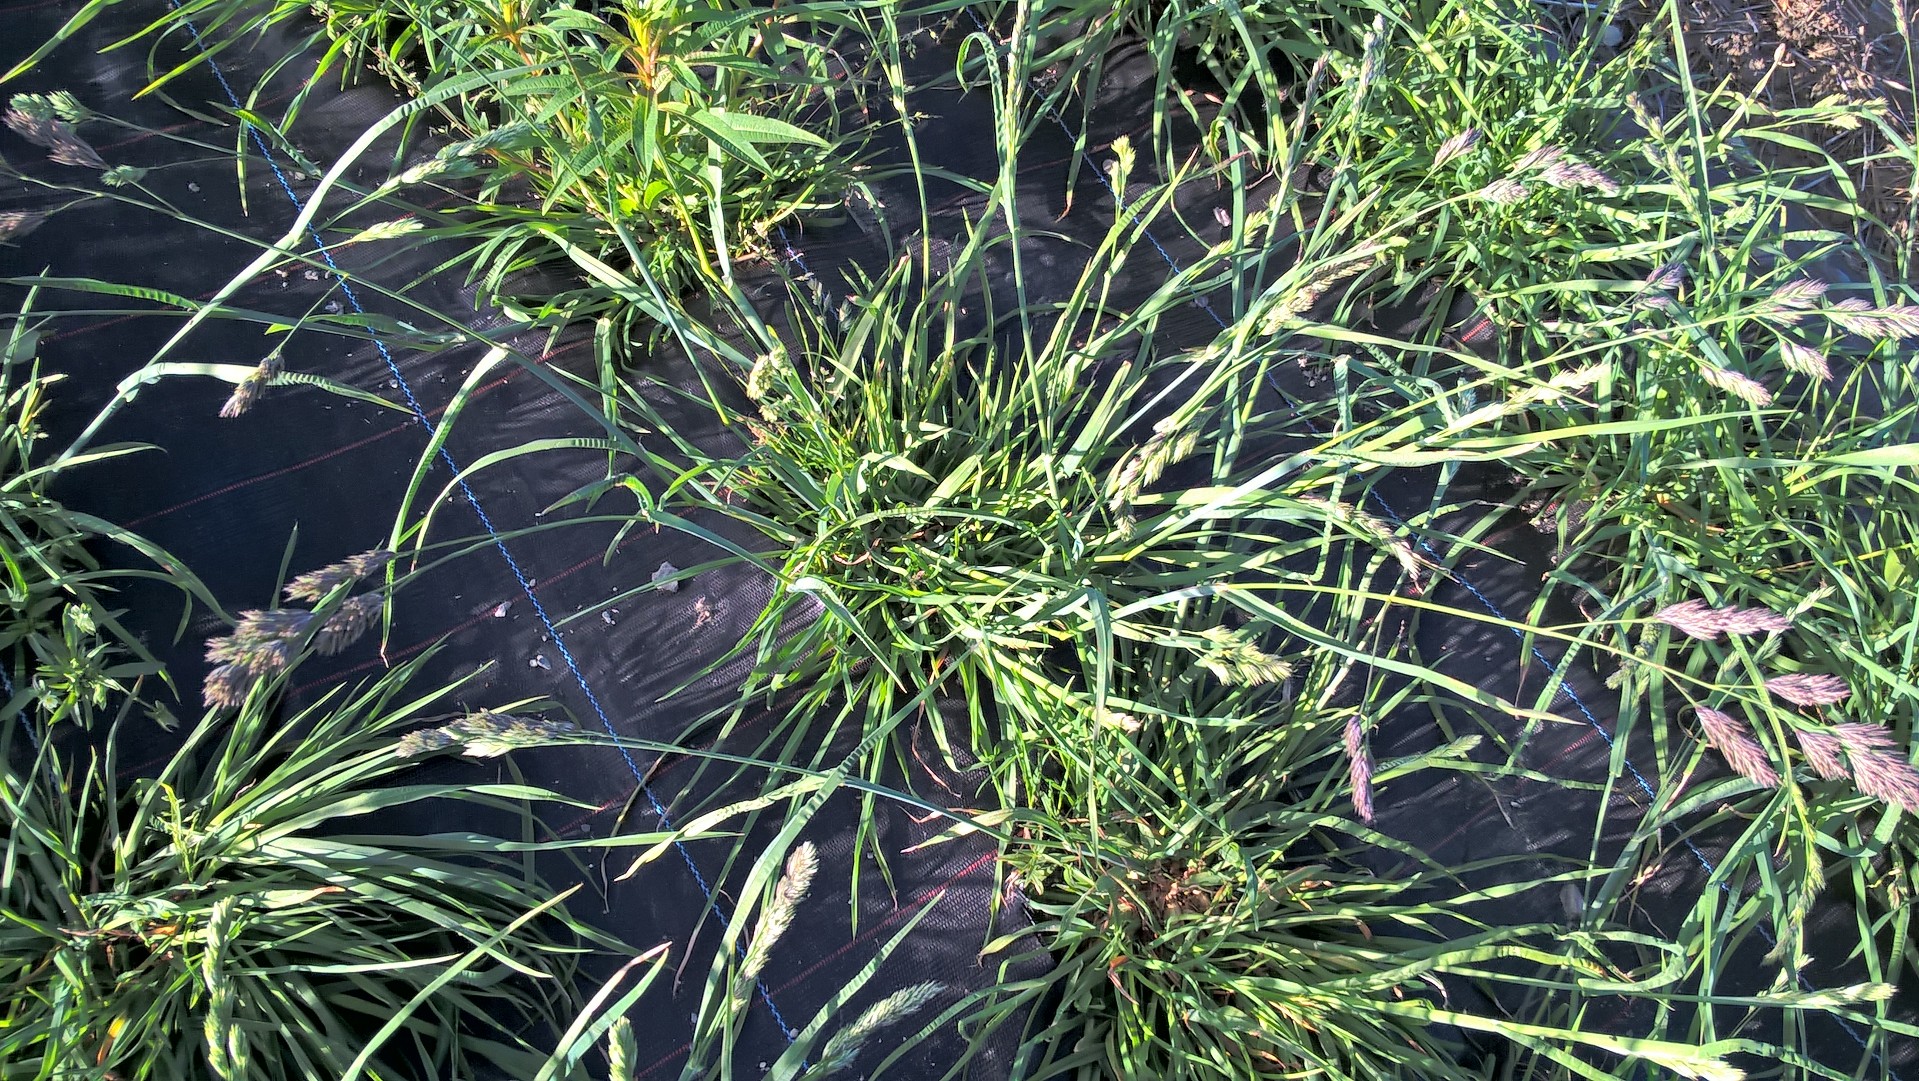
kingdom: Plantae
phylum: Tracheophyta
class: Liliopsida
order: Poales
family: Poaceae
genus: Dactylis
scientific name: Dactylis glomerata
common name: Orchardgrass
